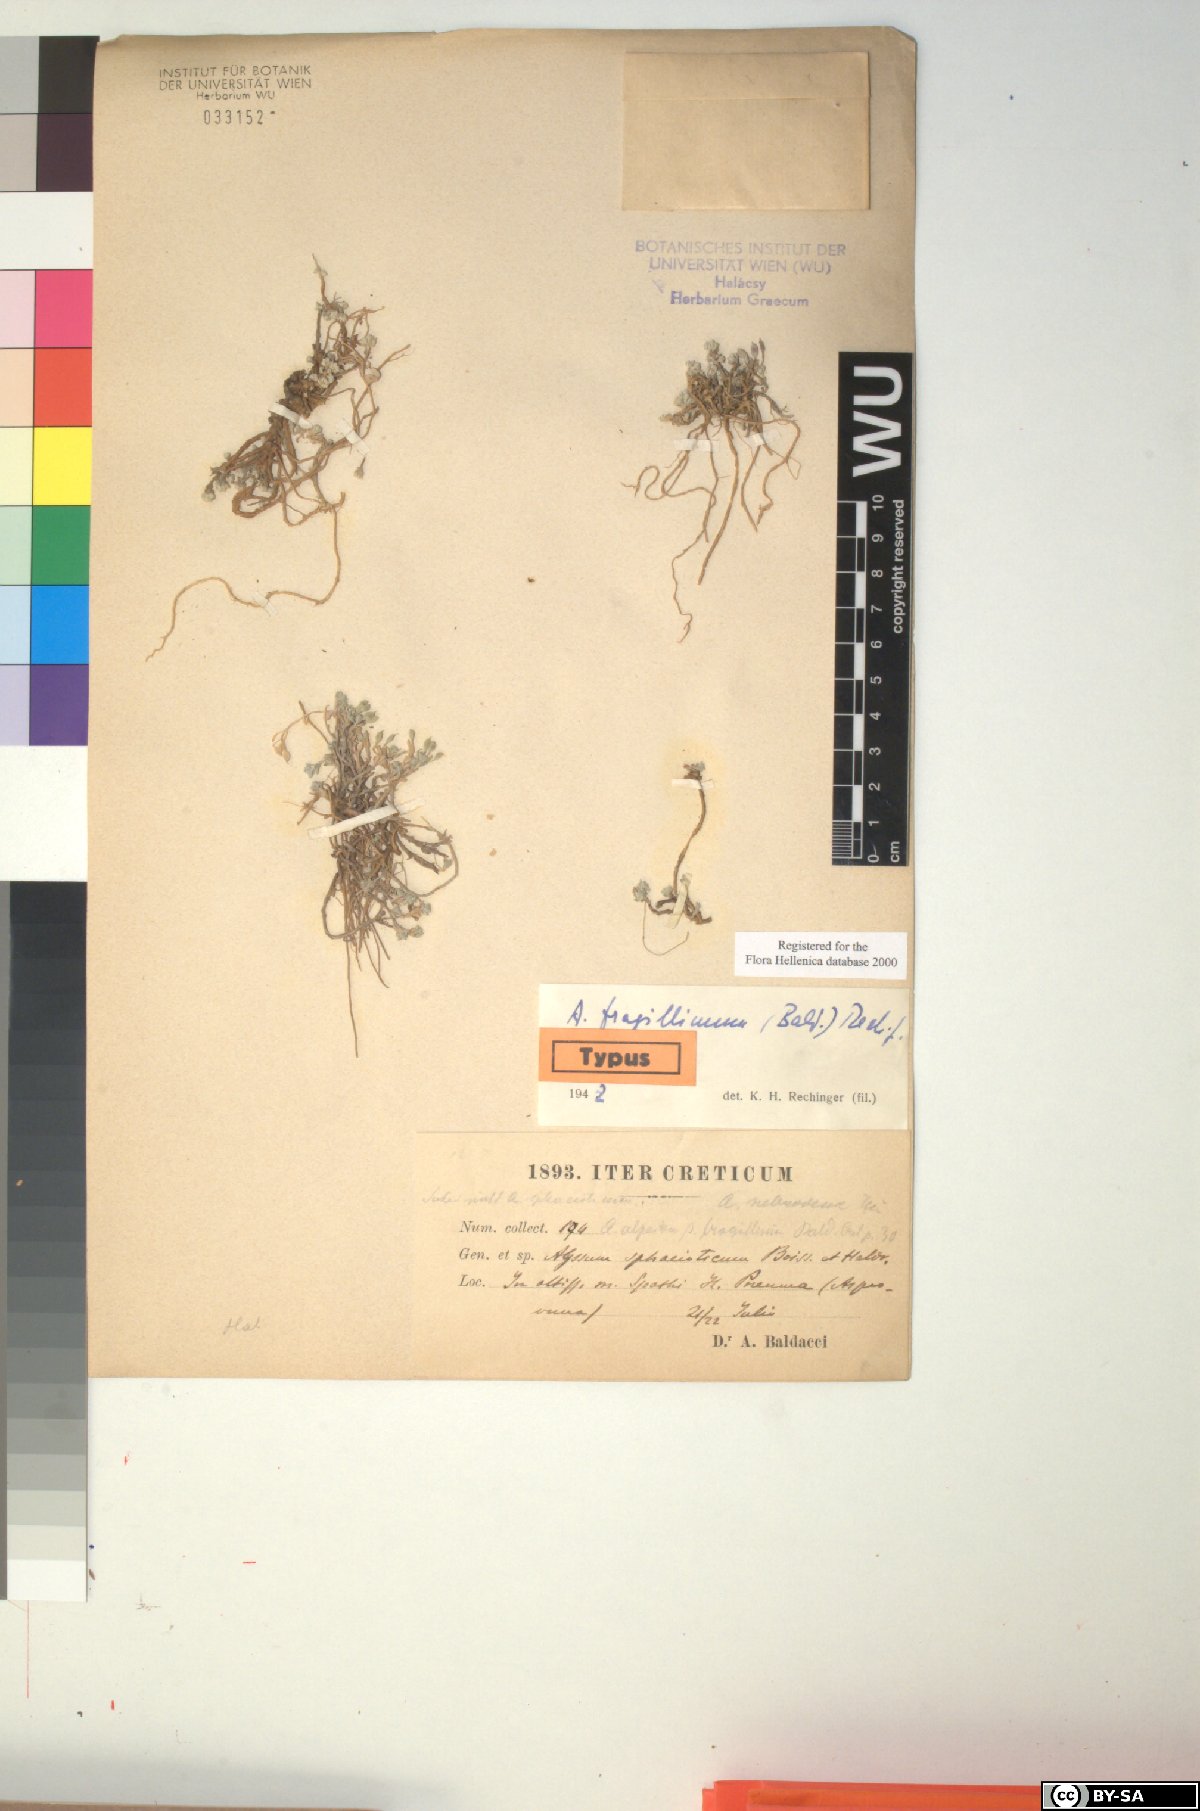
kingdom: Plantae
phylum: Tracheophyta
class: Magnoliopsida
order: Brassicales
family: Brassicaceae
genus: Odontarrhena
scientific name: Odontarrhena fragillima
